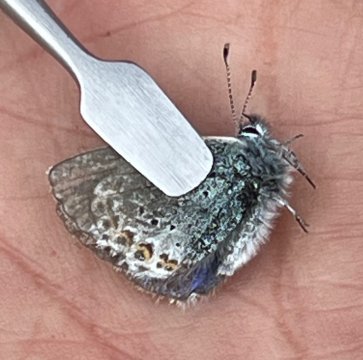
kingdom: Animalia
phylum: Arthropoda
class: Insecta
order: Lepidoptera
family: Lycaenidae
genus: Plebejus
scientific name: Plebejus saepiolus
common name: Greenish Blue
